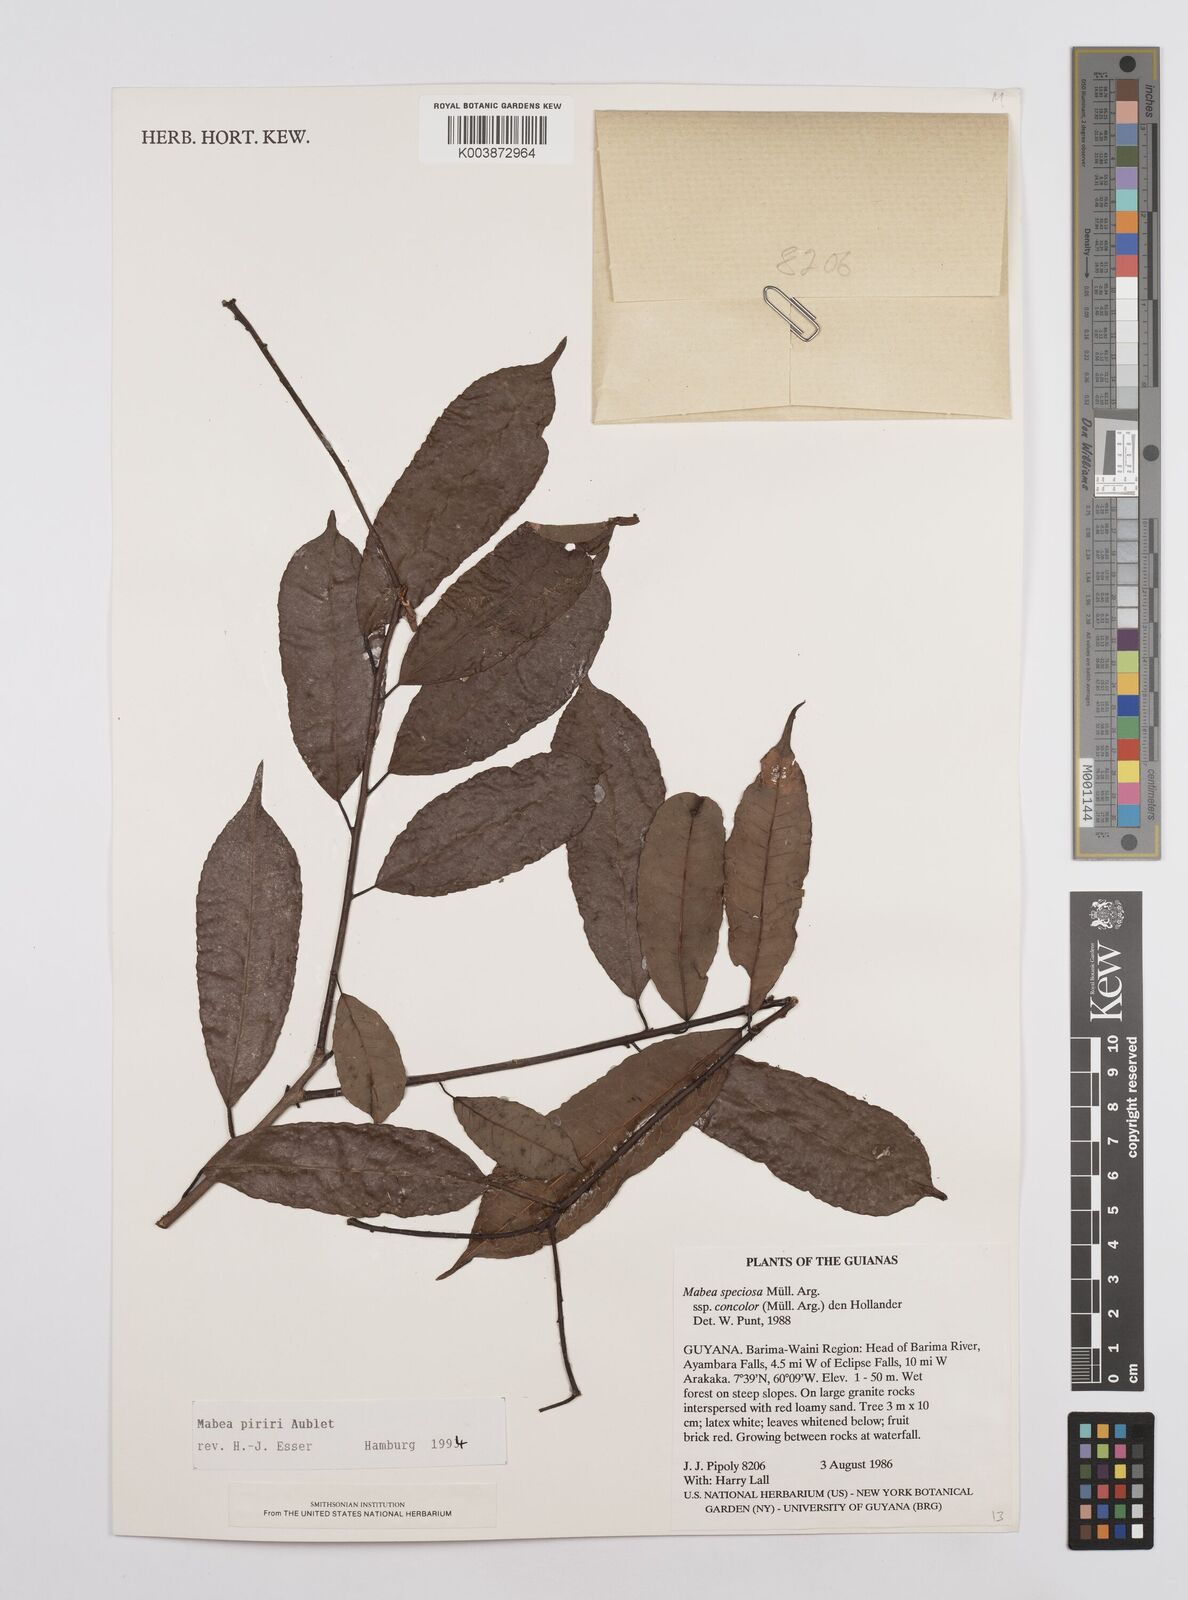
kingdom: Plantae
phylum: Tracheophyta
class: Magnoliopsida
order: Malpighiales
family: Euphorbiaceae
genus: Mabea
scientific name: Mabea piriri
